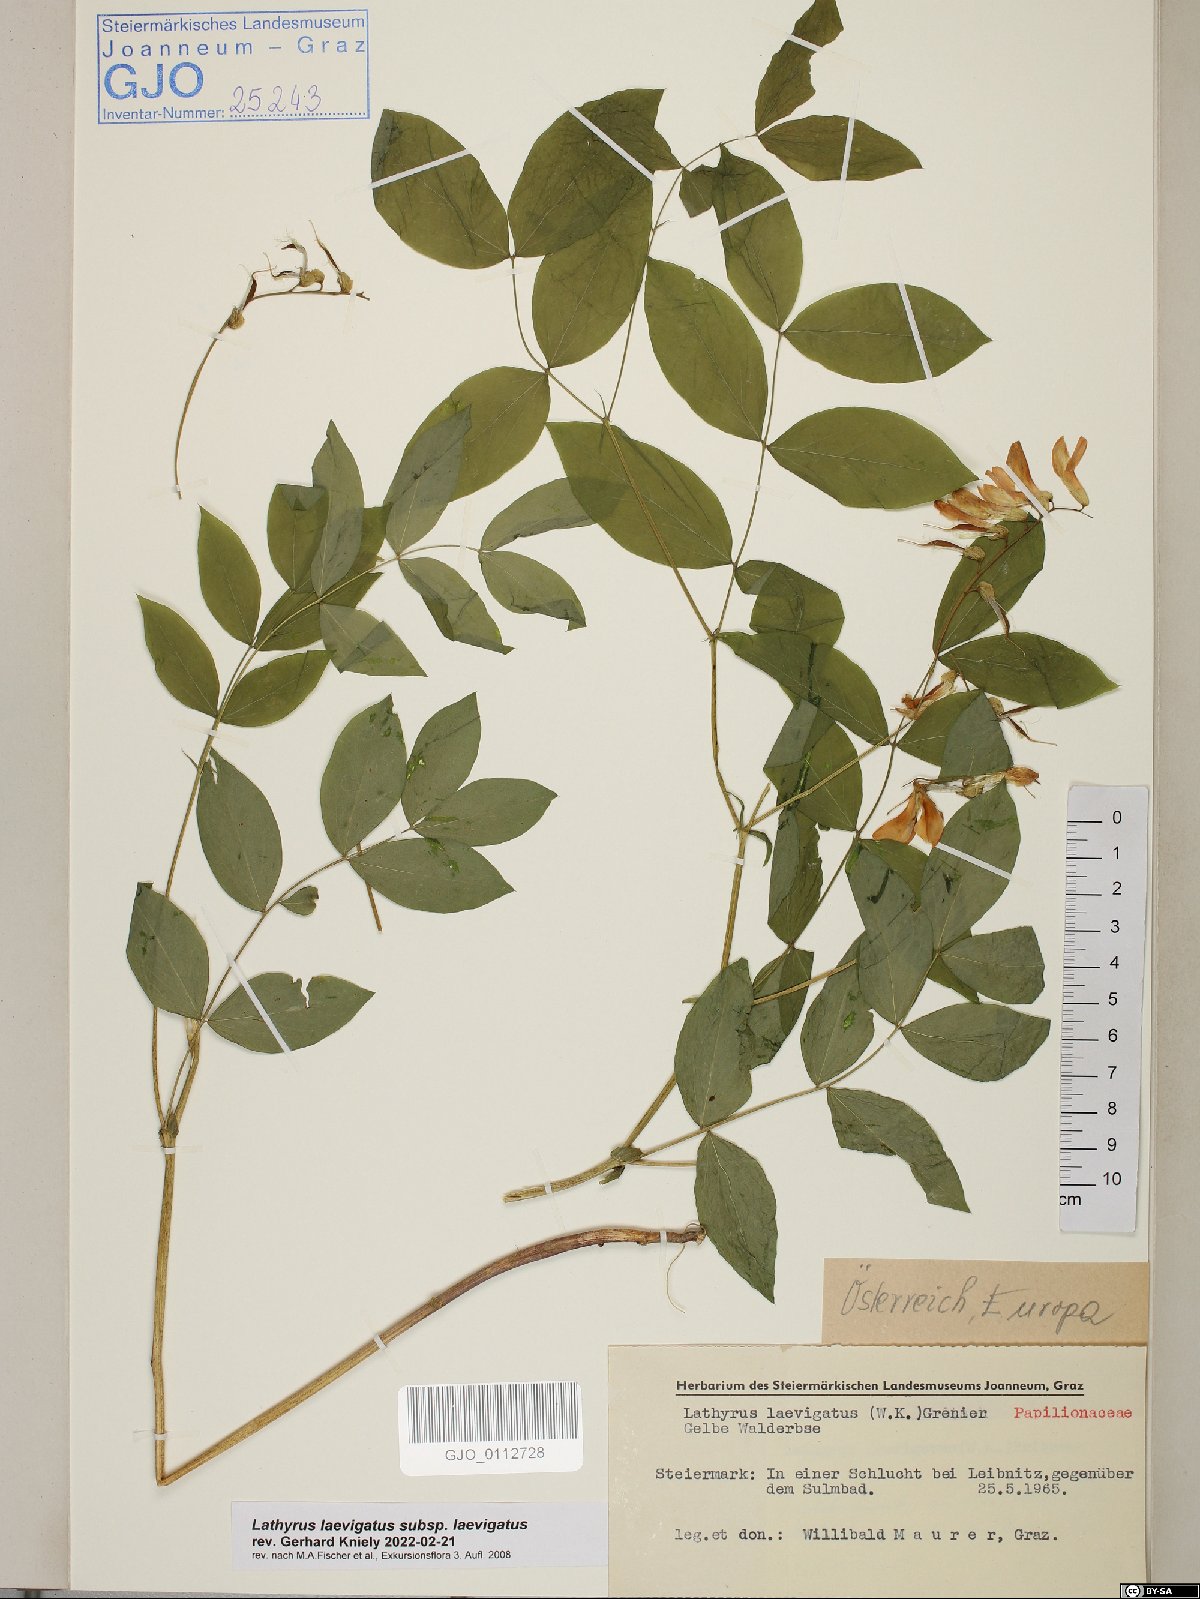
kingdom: Plantae
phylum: Tracheophyta
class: Magnoliopsida
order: Fabales
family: Fabaceae
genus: Lathyrus
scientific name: Lathyrus laevigatus
